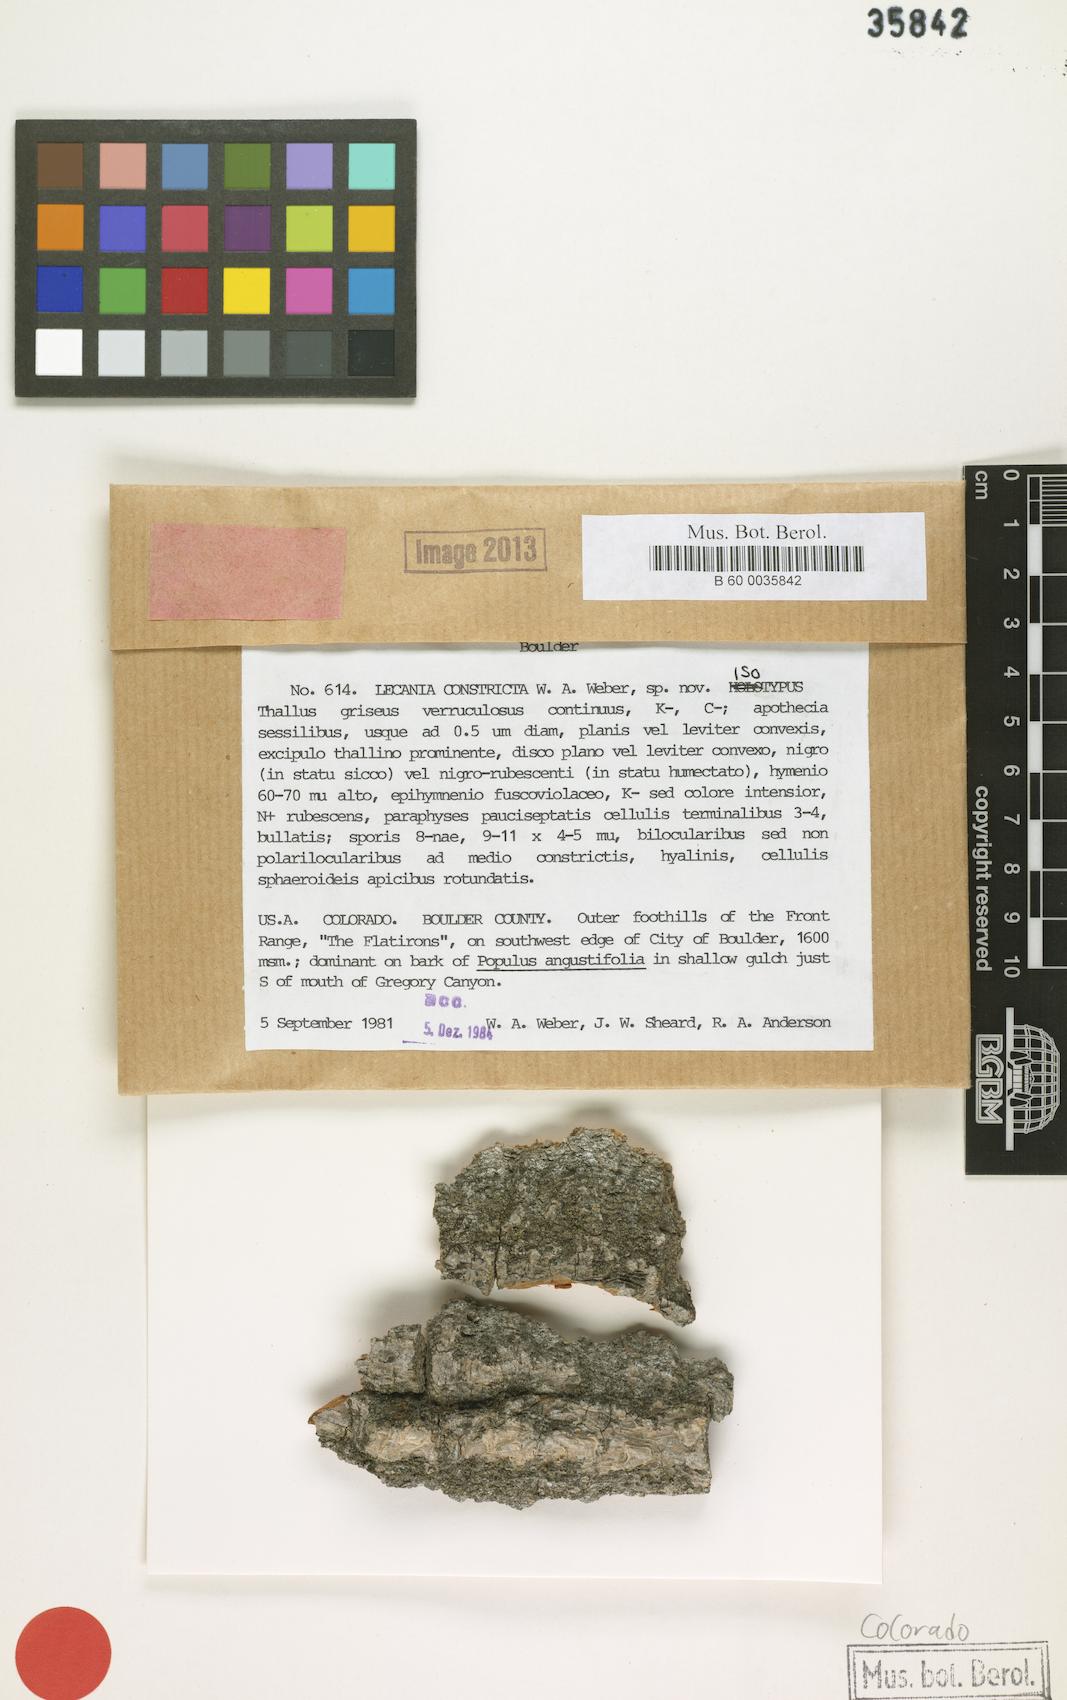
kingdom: Fungi
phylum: Ascomycota
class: Lecanoromycetes
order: Lecanorales
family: Ramalinaceae
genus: Lecania
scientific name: Lecania constricta
